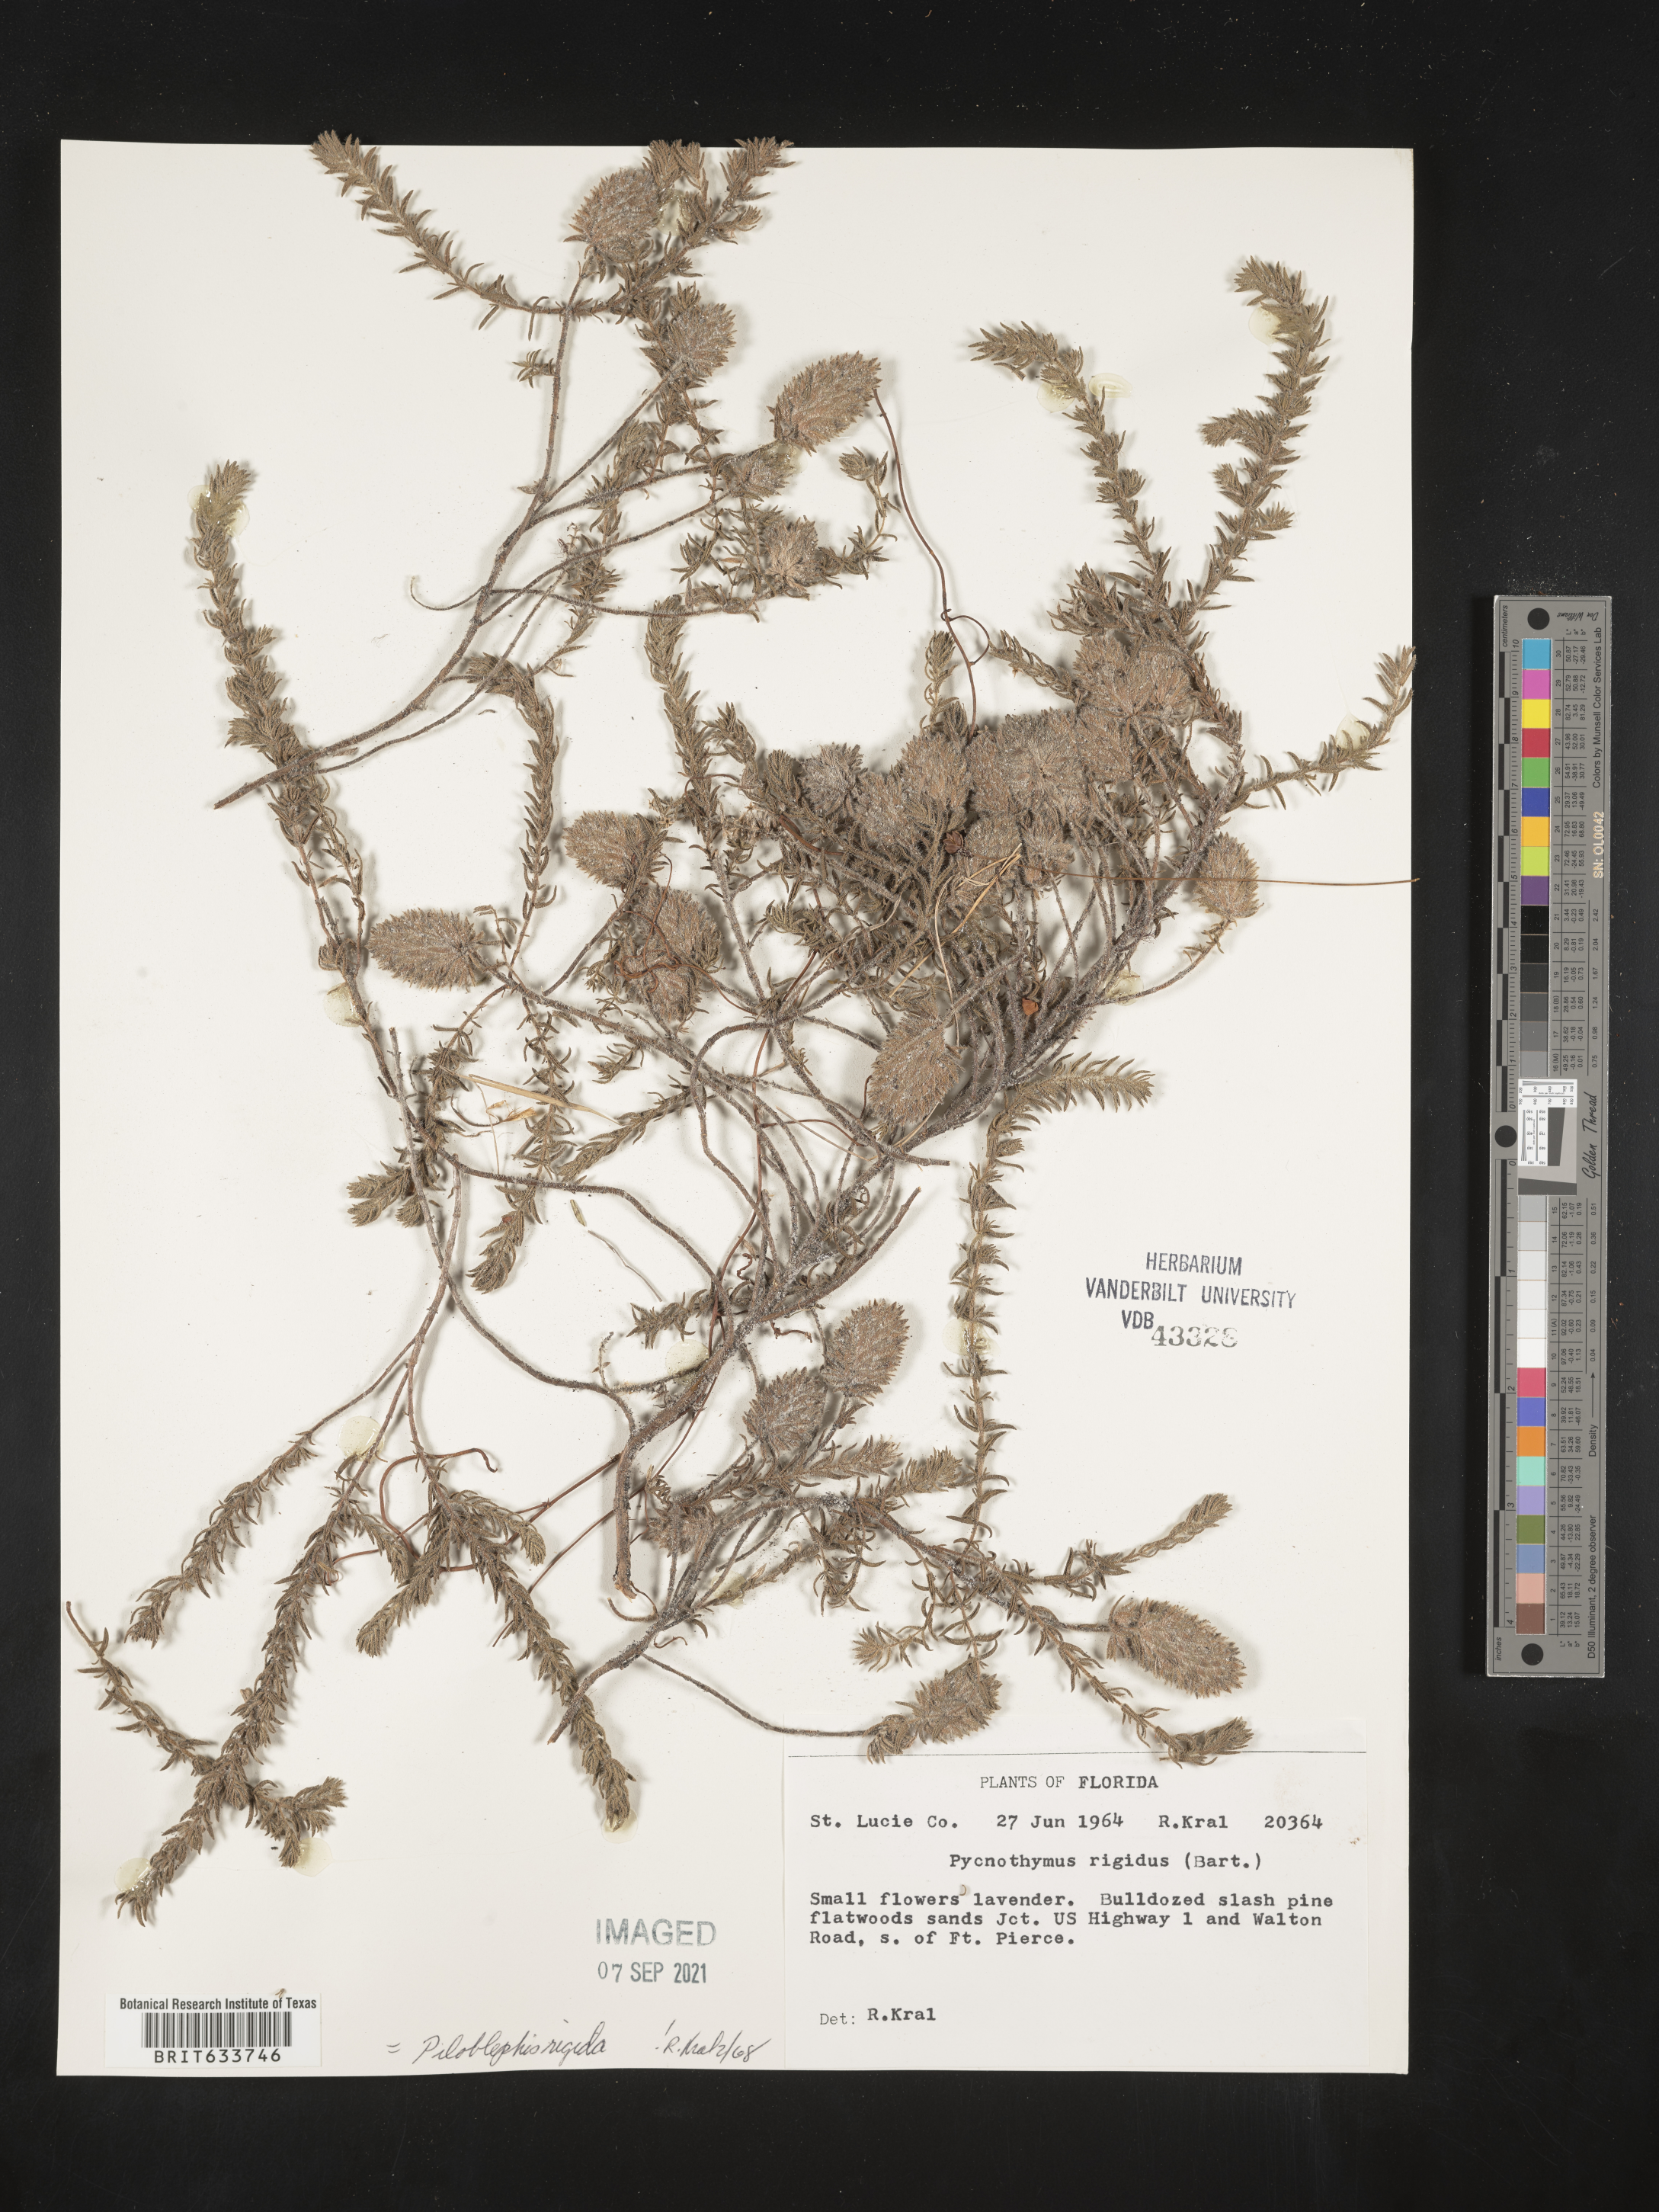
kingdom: Plantae
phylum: Tracheophyta
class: Magnoliopsida
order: Lamiales
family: Lamiaceae
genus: Piloblephis
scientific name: Piloblephis rigida
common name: Wild pennyroyal
